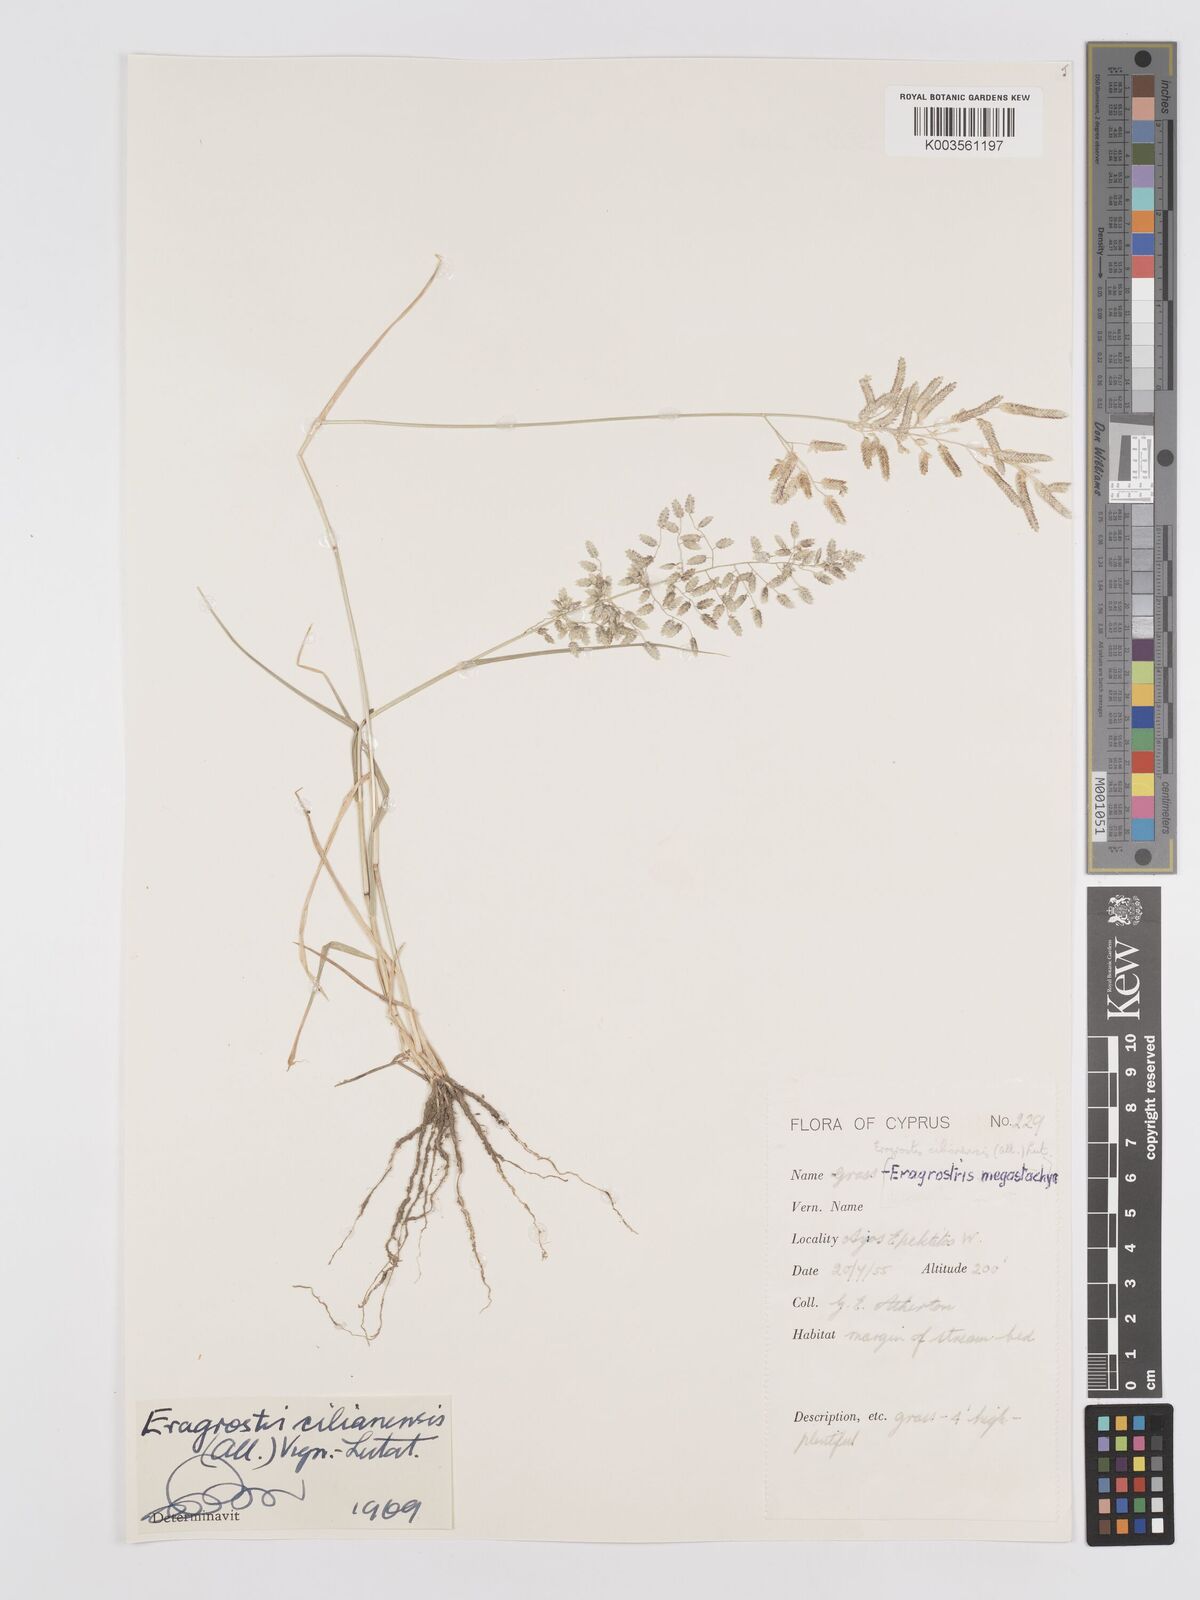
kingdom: Plantae
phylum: Tracheophyta
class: Liliopsida
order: Poales
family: Poaceae
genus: Eragrostis
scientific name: Eragrostis cilianensis
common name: Stinkgrass
